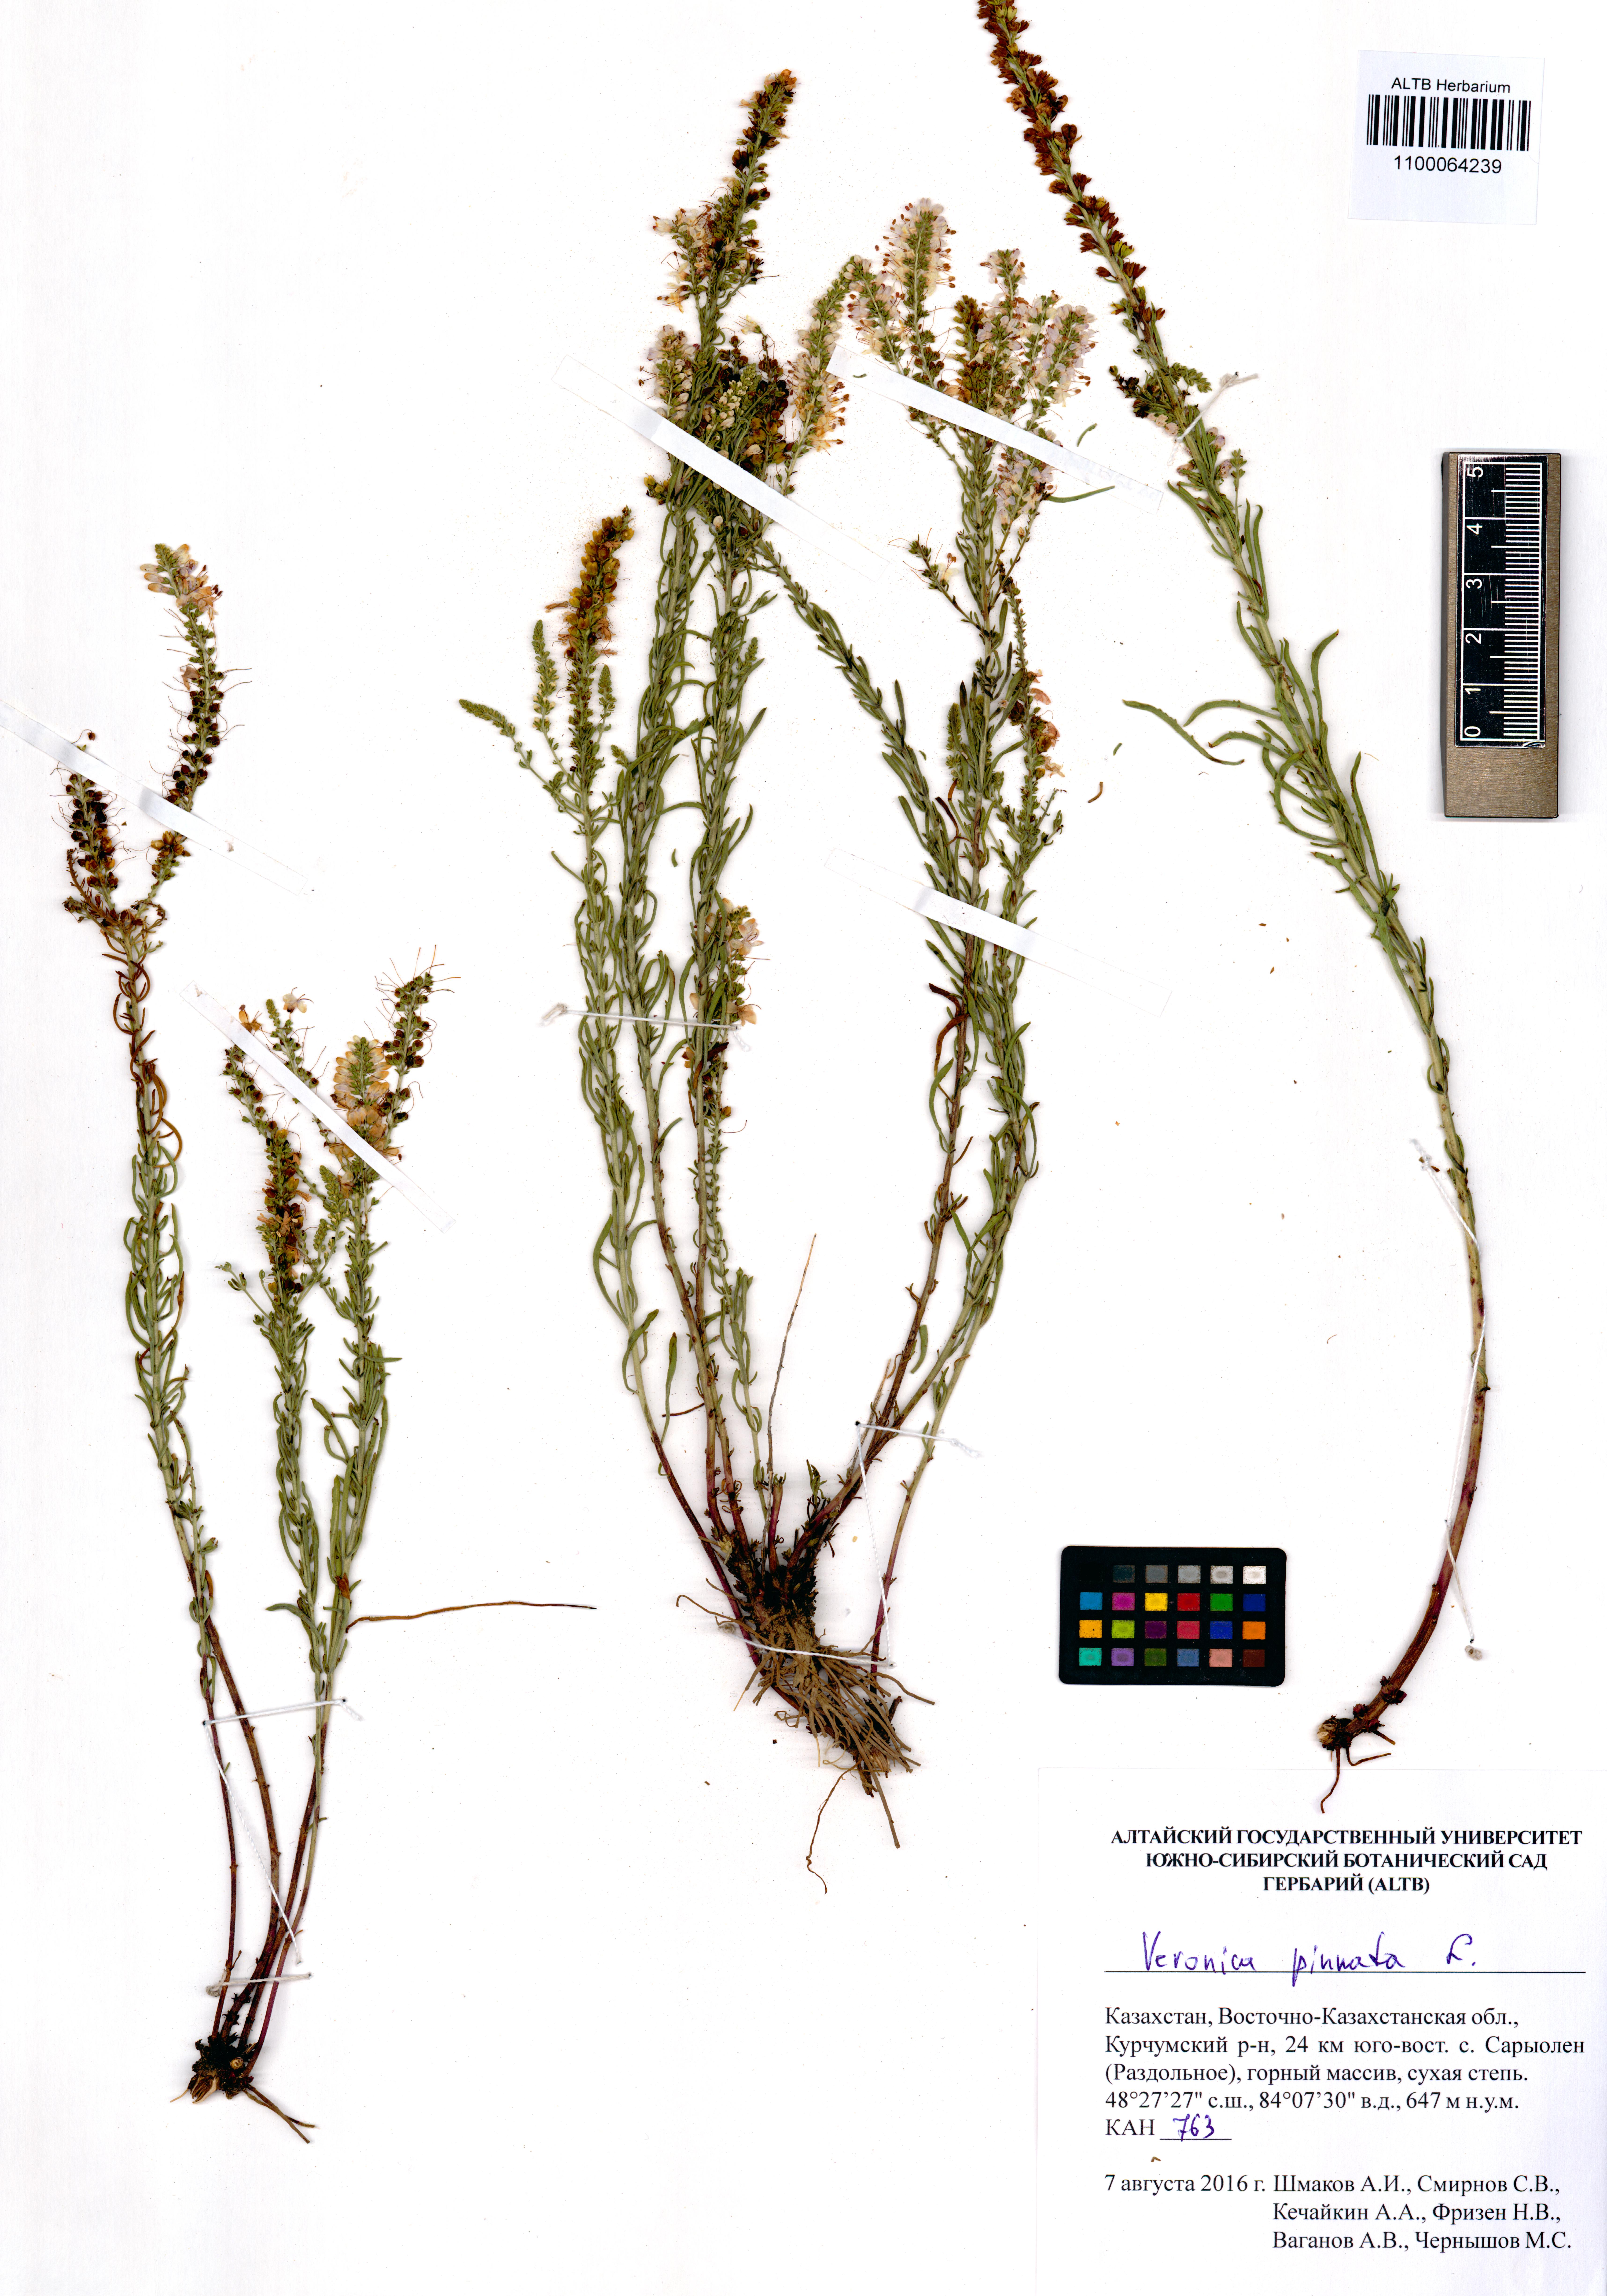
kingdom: Plantae
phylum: Tracheophyta
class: Magnoliopsida
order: Lamiales
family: Plantaginaceae
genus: Veronica
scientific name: Veronica pinnata
